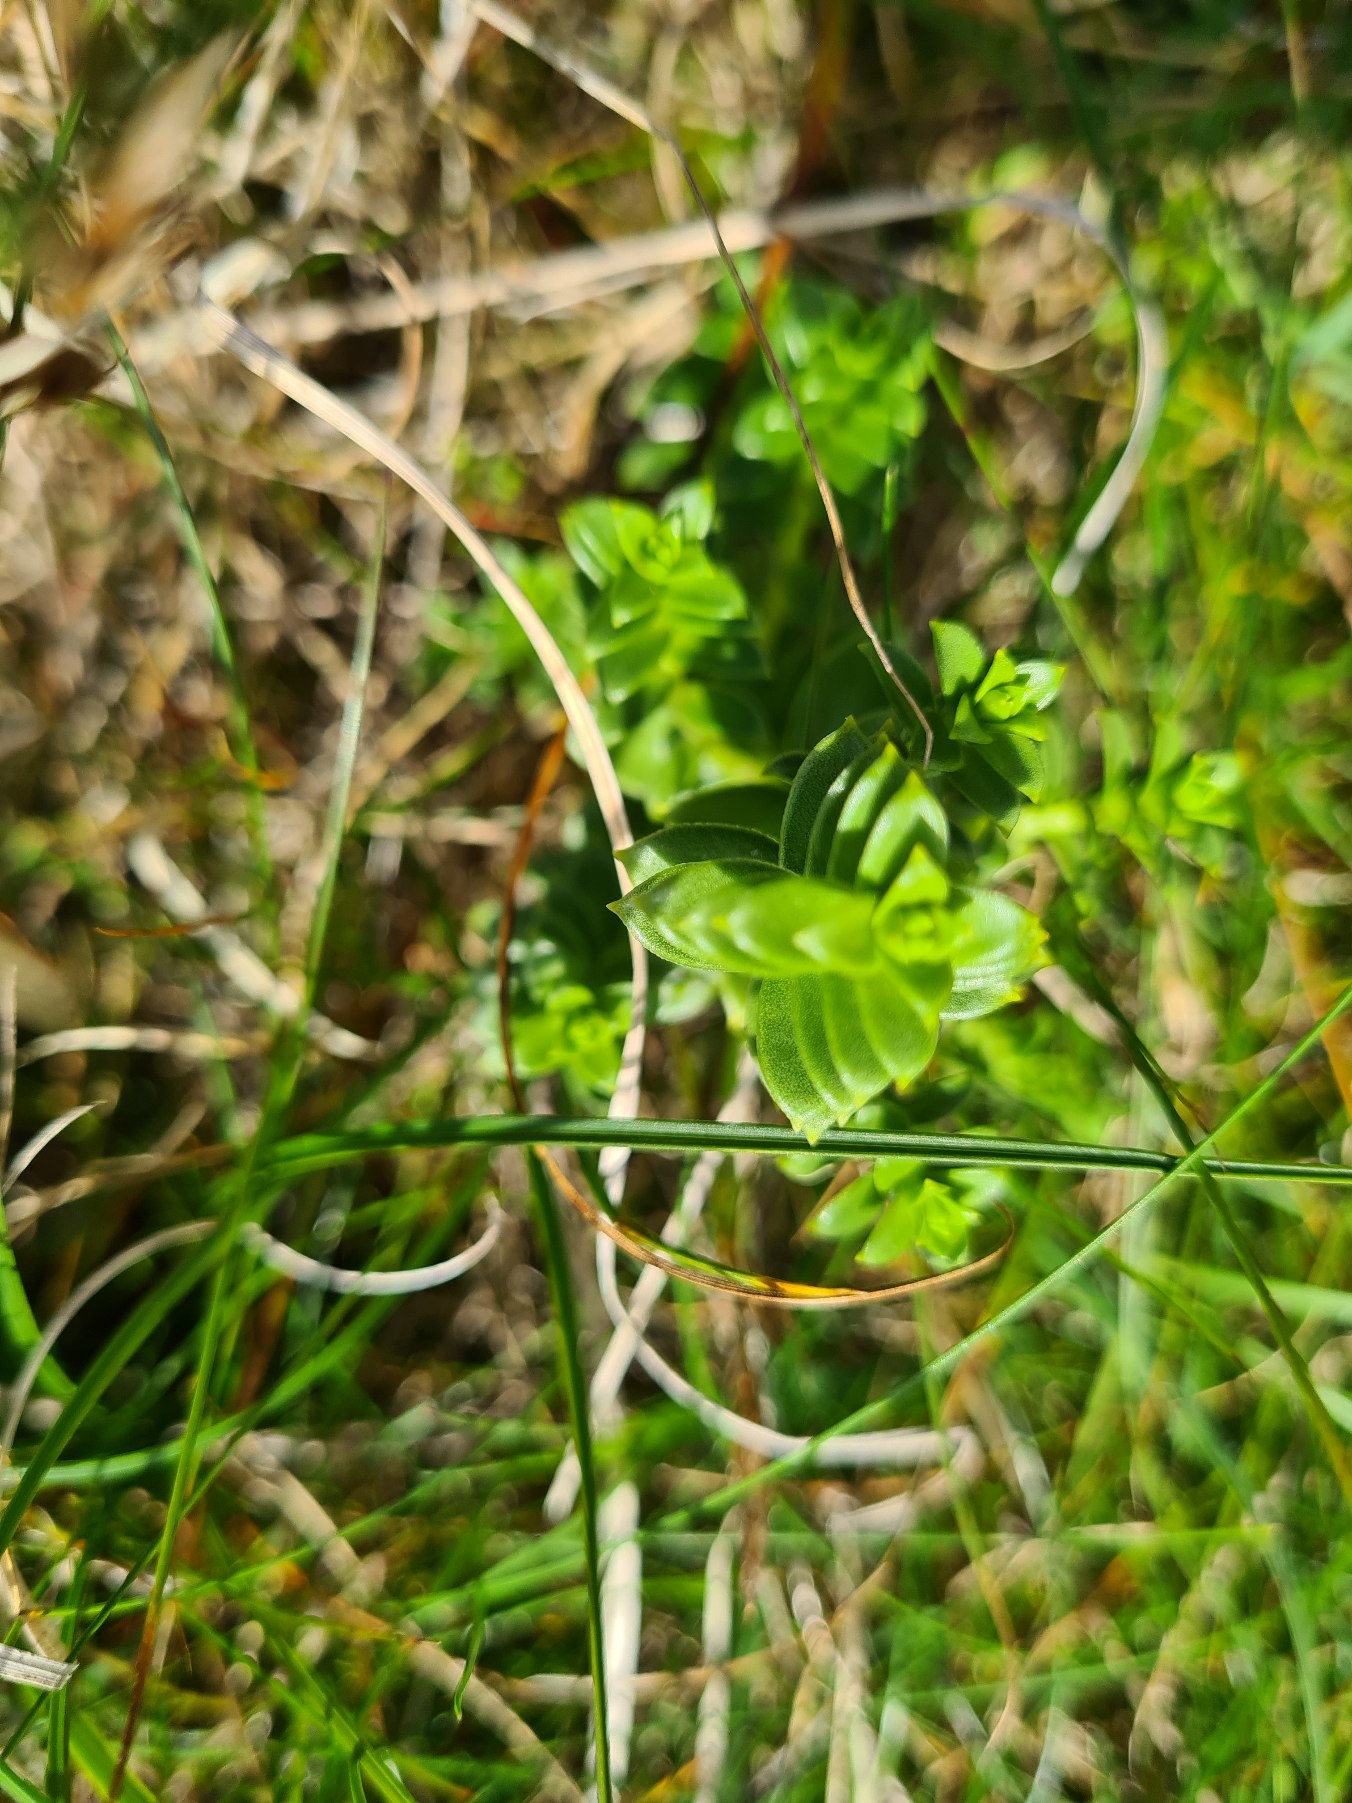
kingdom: Plantae
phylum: Tracheophyta
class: Magnoliopsida
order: Caryophyllales
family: Caryophyllaceae
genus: Honckenya
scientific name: Honckenya peploides
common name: Strandarve
